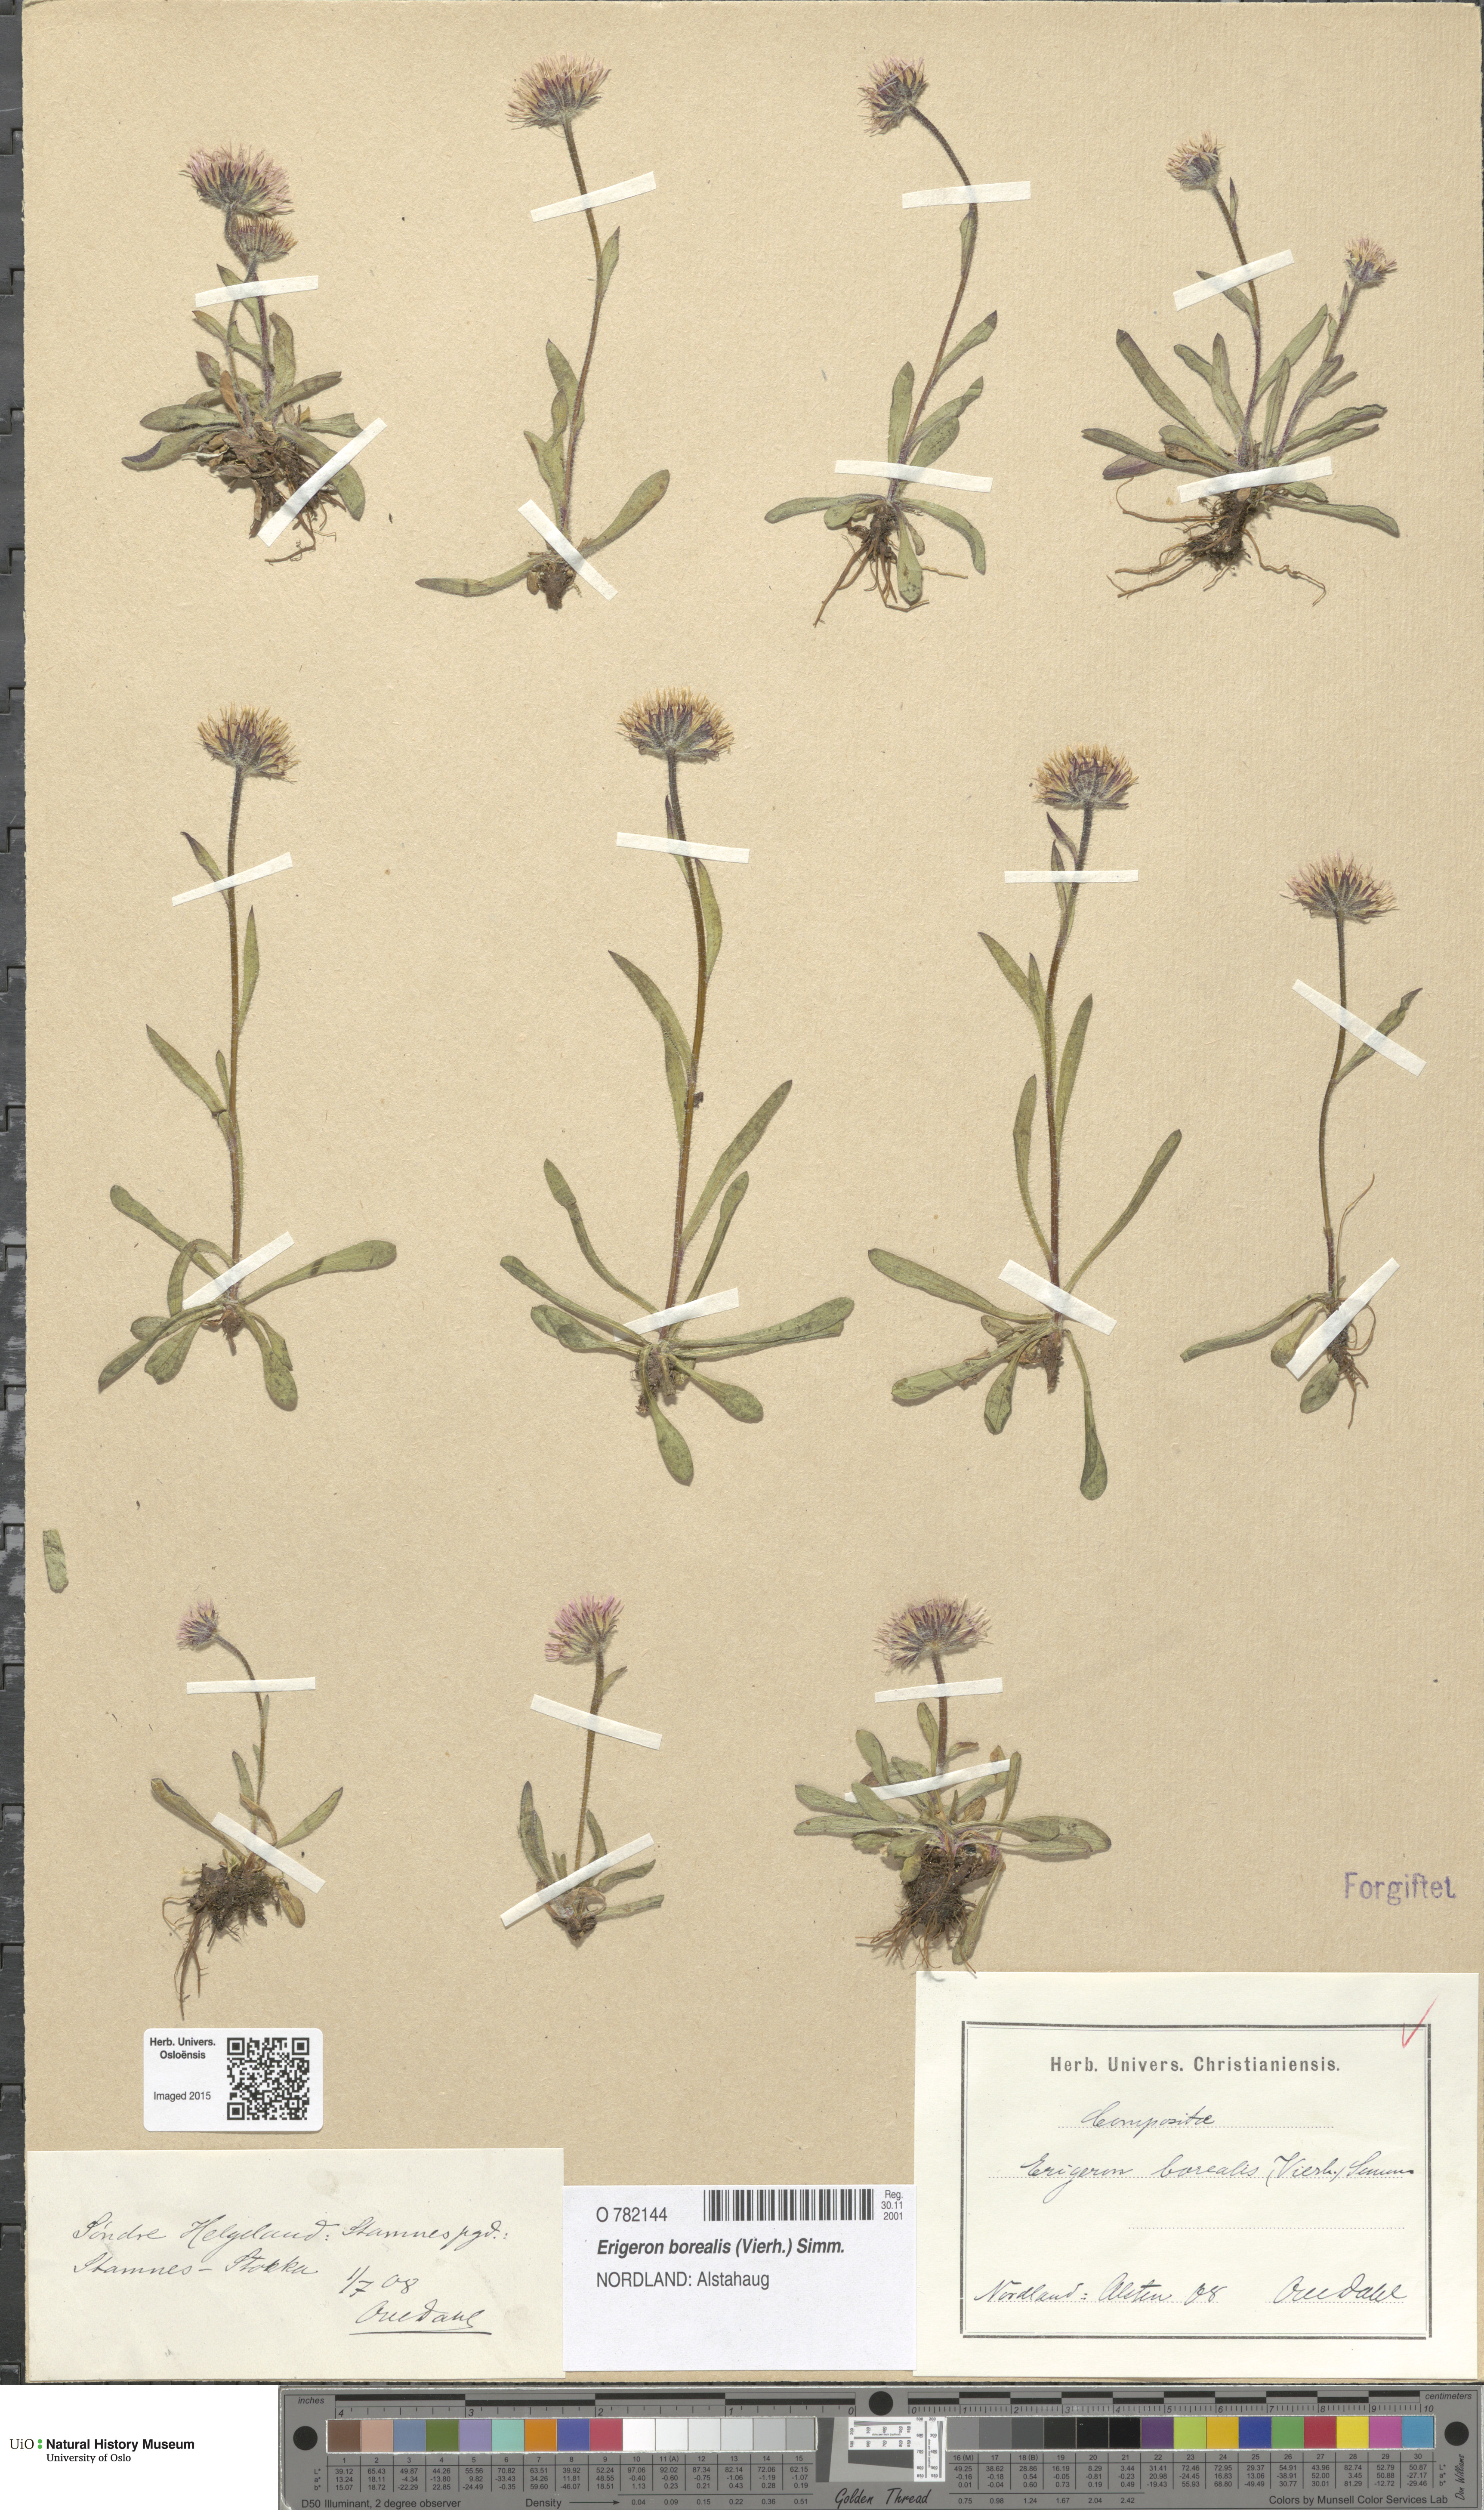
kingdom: Plantae
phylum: Tracheophyta
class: Magnoliopsida
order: Asterales
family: Asteraceae
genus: Erigeron
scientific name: Erigeron borealis
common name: Alpine fleabane
